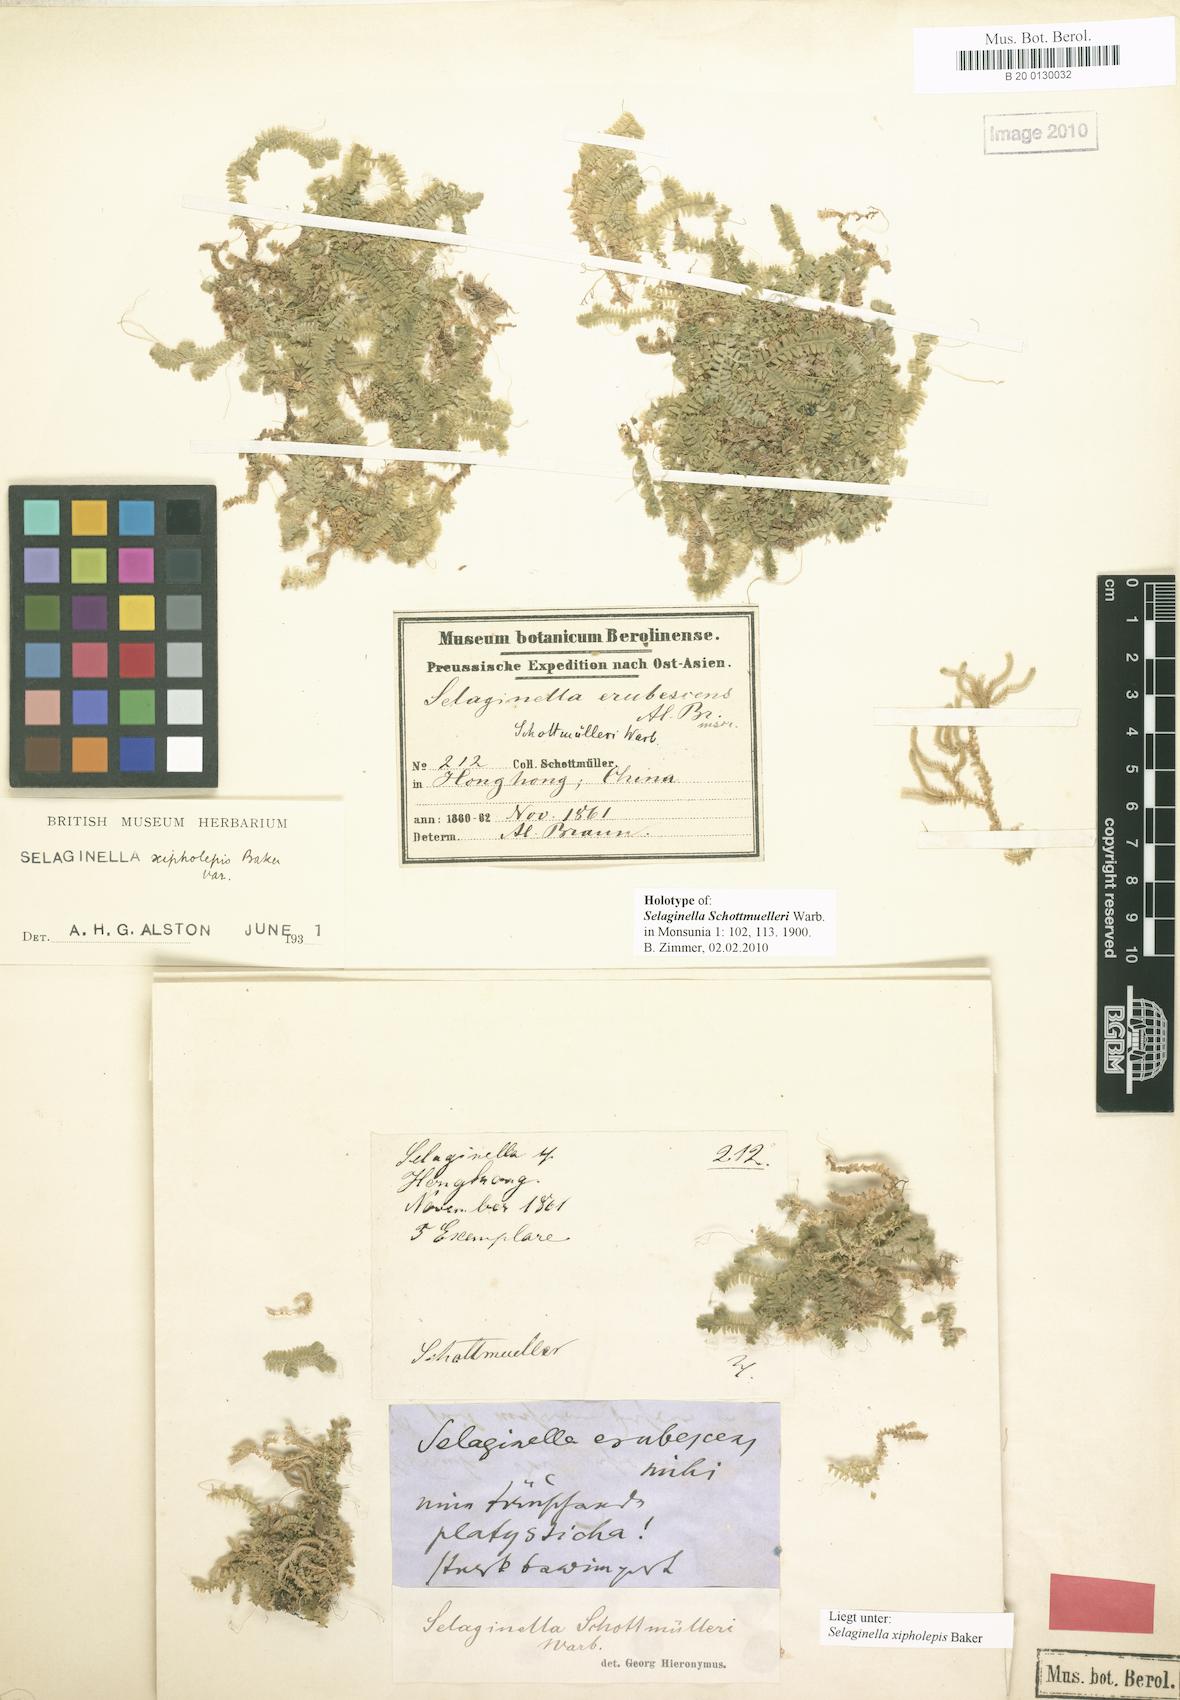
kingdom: Plantae
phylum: Tracheophyta
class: Lycopodiopsida
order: Selaginellales
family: Selaginellaceae
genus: Selaginella
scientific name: Selaginella xipholepis
